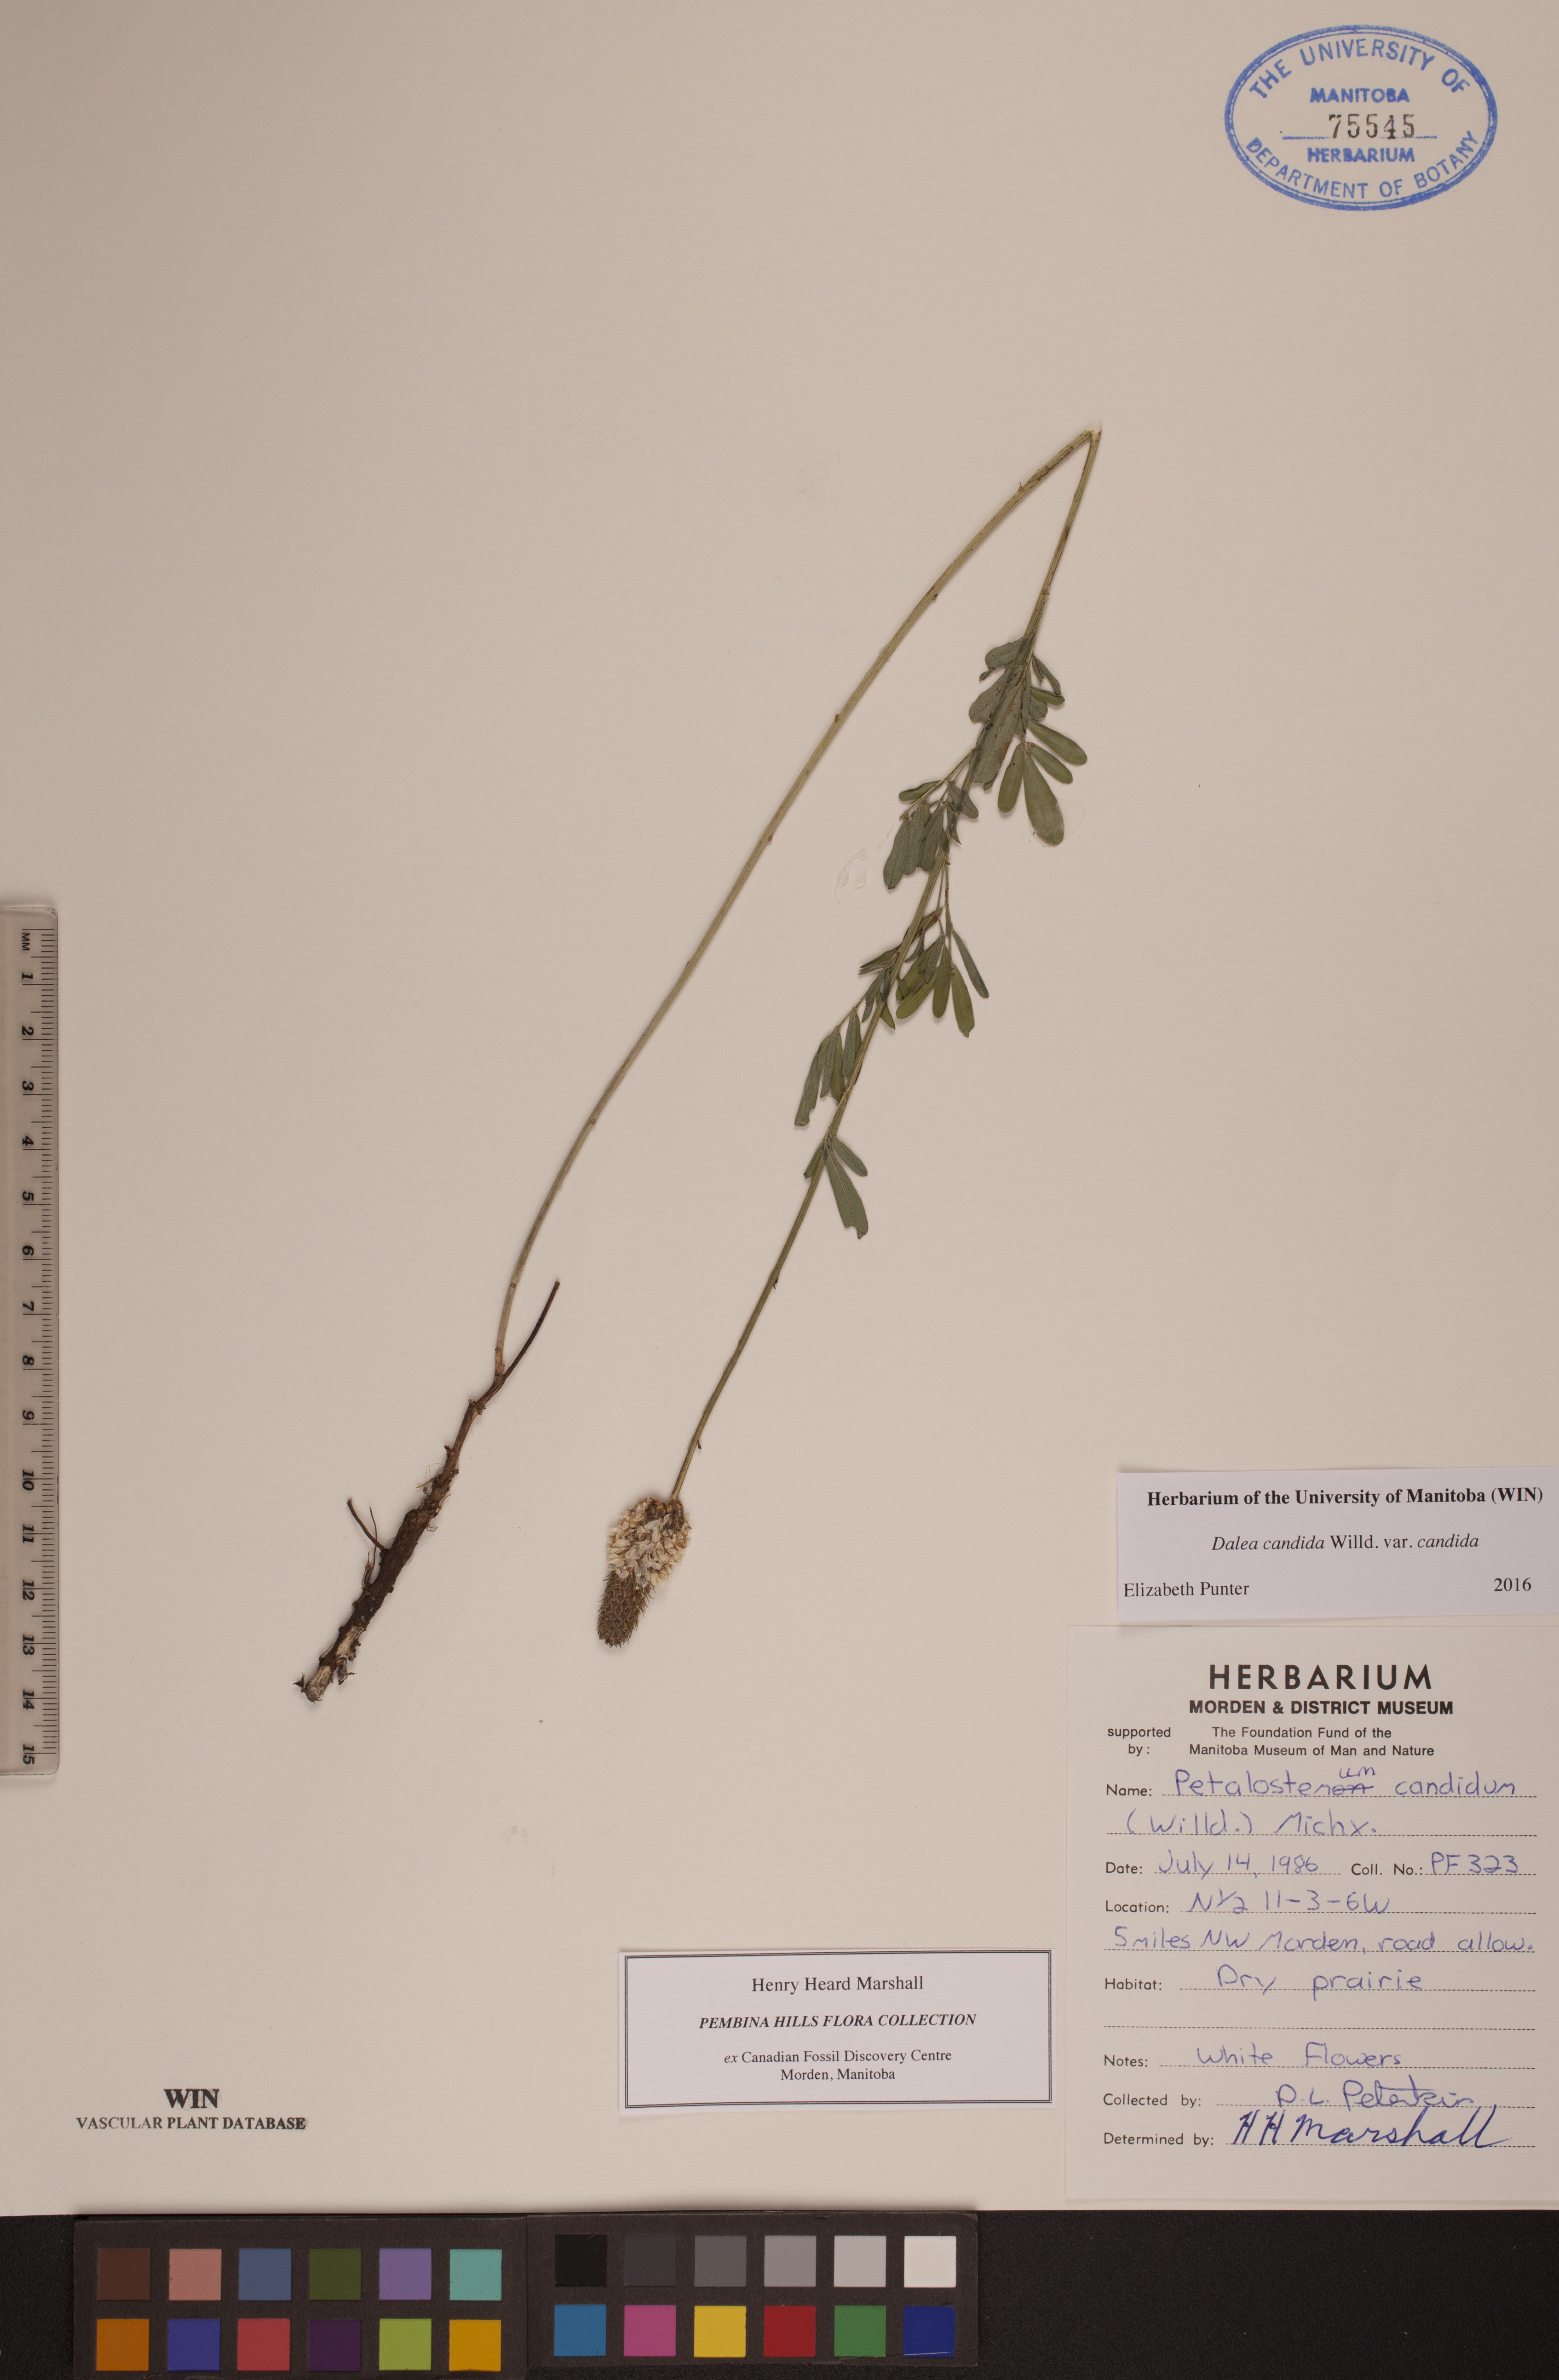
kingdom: Plantae
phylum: Tracheophyta
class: Magnoliopsida
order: Fabales
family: Fabaceae
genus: Dalea
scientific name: Dalea candida
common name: White prairie-clover
